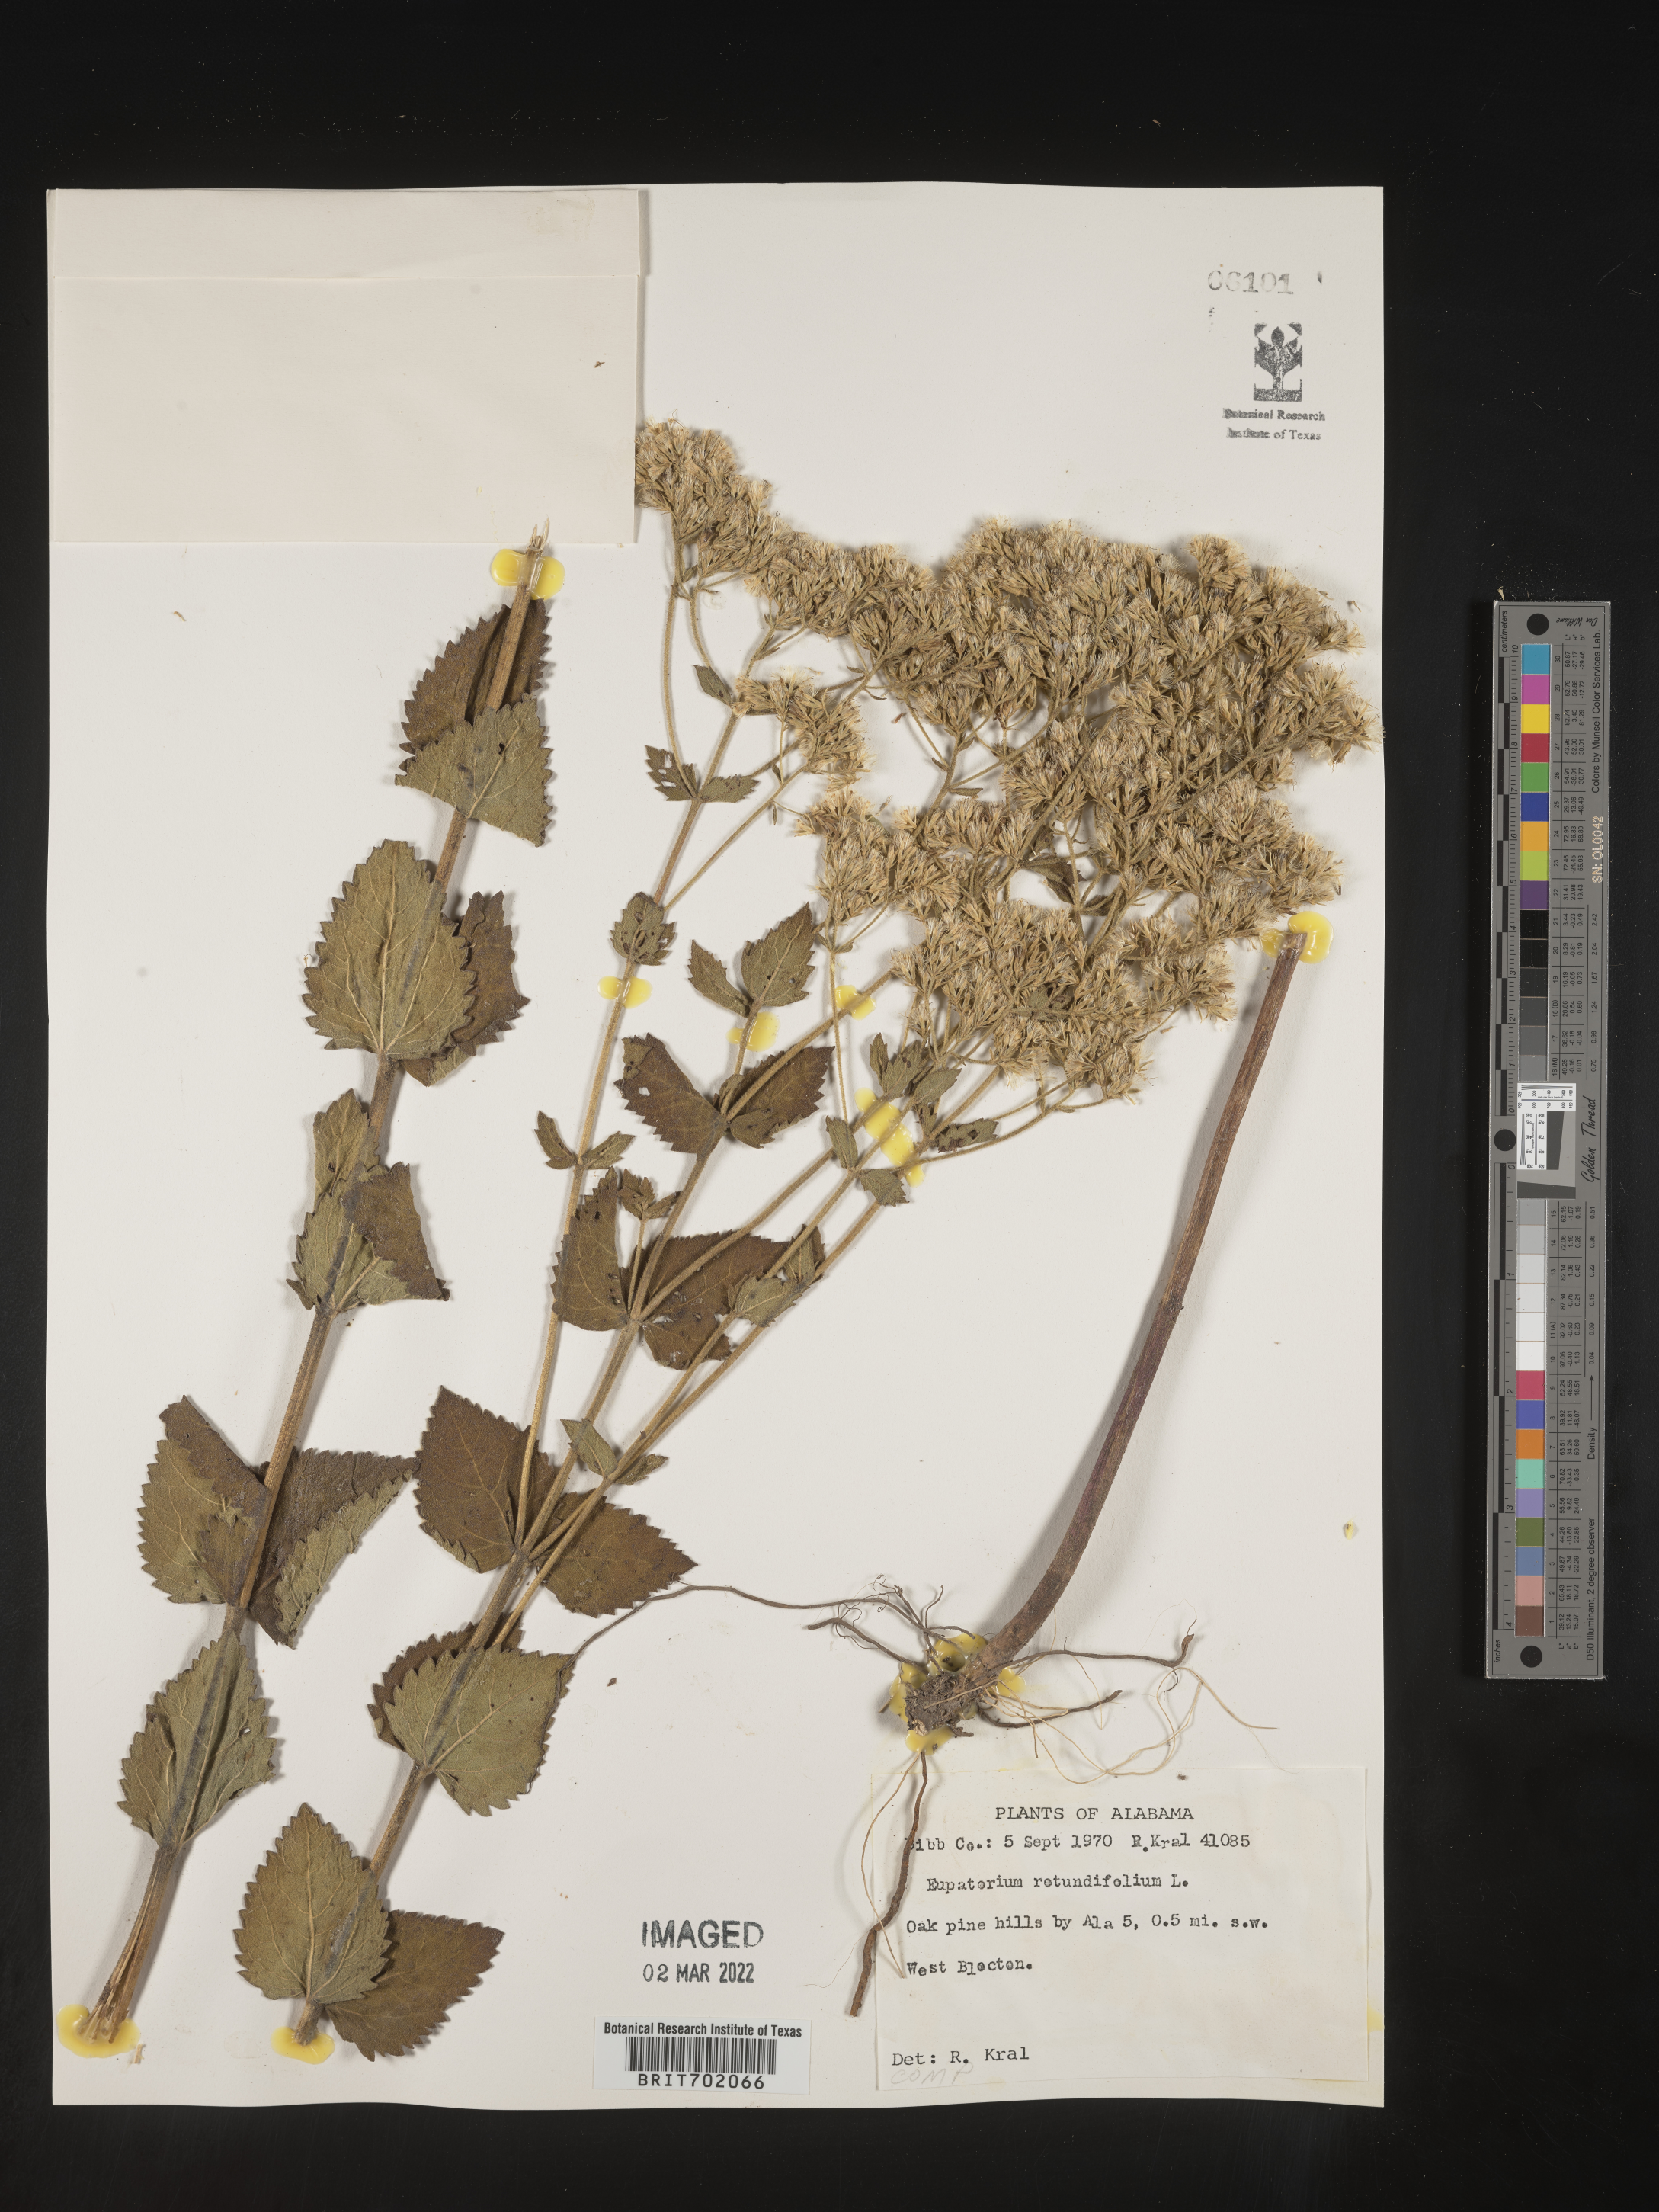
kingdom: Plantae
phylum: Tracheophyta
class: Magnoliopsida
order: Asterales
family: Asteraceae
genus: Eupatorium
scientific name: Eupatorium rotundifolium
